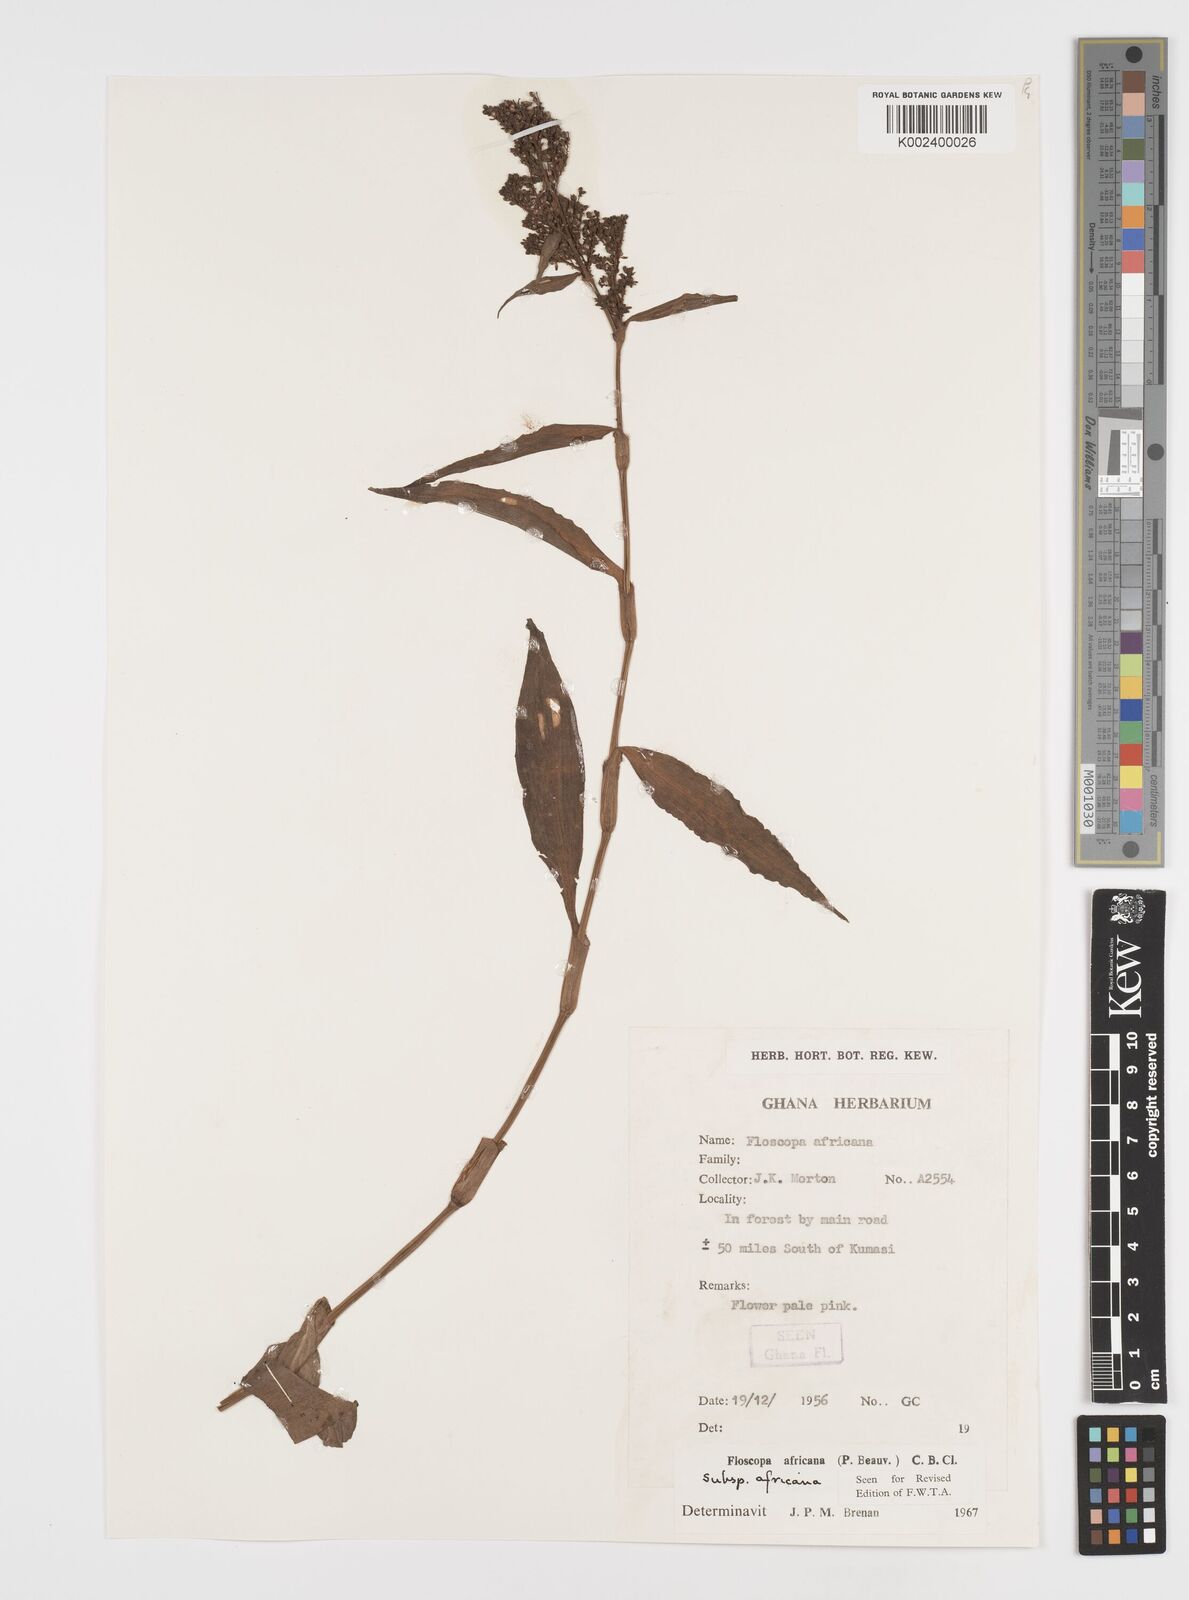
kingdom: Plantae
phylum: Tracheophyta
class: Liliopsida
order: Commelinales
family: Commelinaceae
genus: Floscopa
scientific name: Floscopa africana
